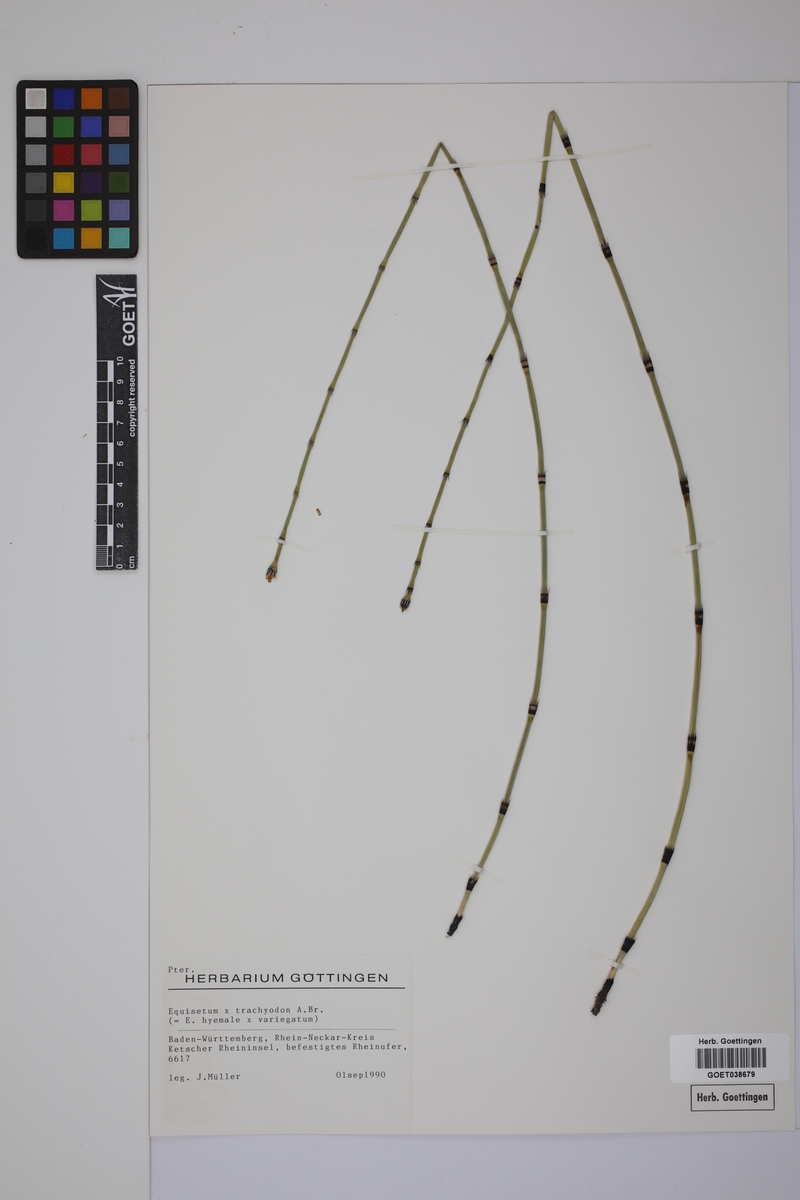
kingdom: Plantae
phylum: Tracheophyta
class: Polypodiopsida
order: Equisetales
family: Equisetaceae
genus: Equisetum
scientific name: Equisetum hyemale
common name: Rough horsetail
